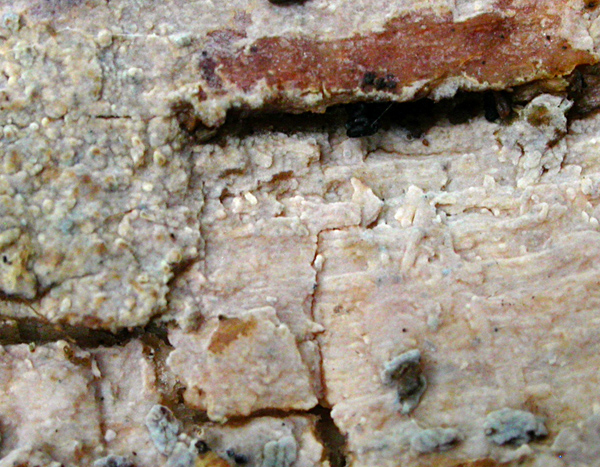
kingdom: Fungi
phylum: Basidiomycota
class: Agaricomycetes
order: Trechisporales
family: Hydnodontaceae
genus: Sphaerobasidium
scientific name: Sphaerobasidium minutum
